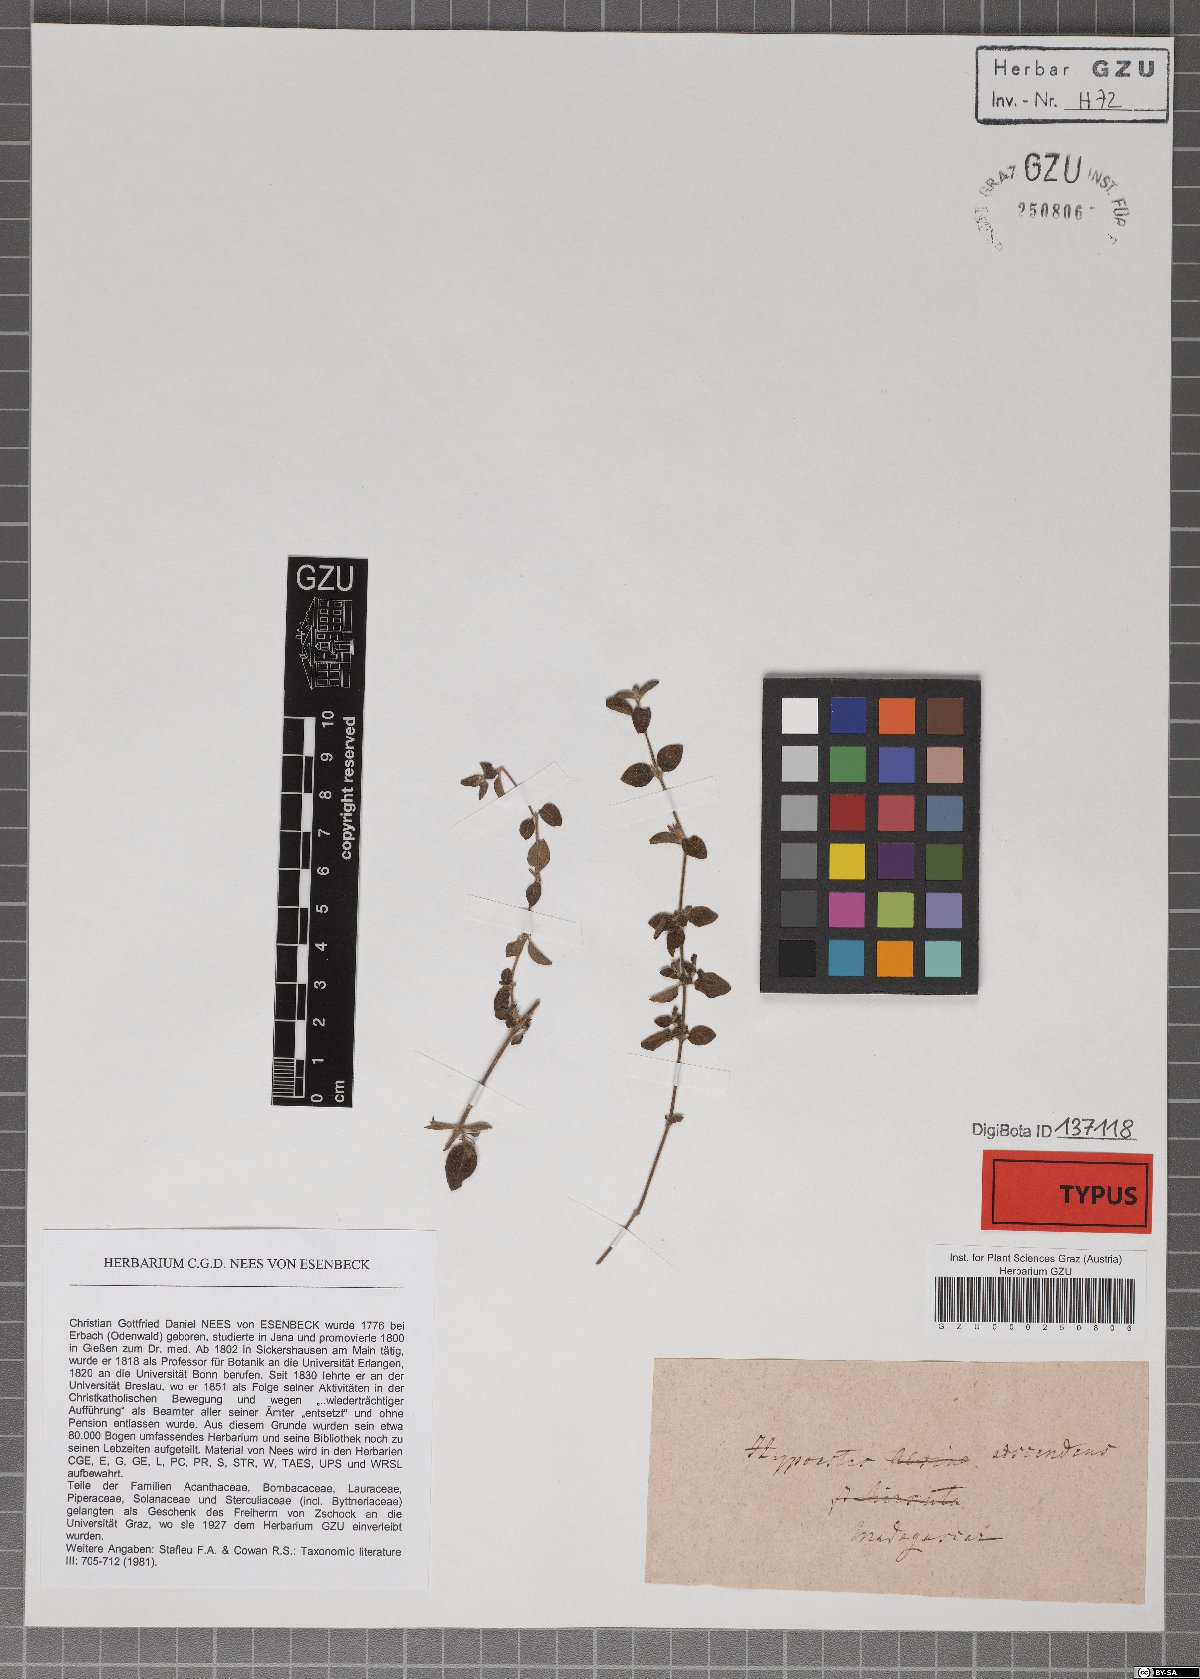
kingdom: Plantae
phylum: Tracheophyta
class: Magnoliopsida
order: Lamiales
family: Acanthaceae
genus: Hypoestes
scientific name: Hypoestes serpens
